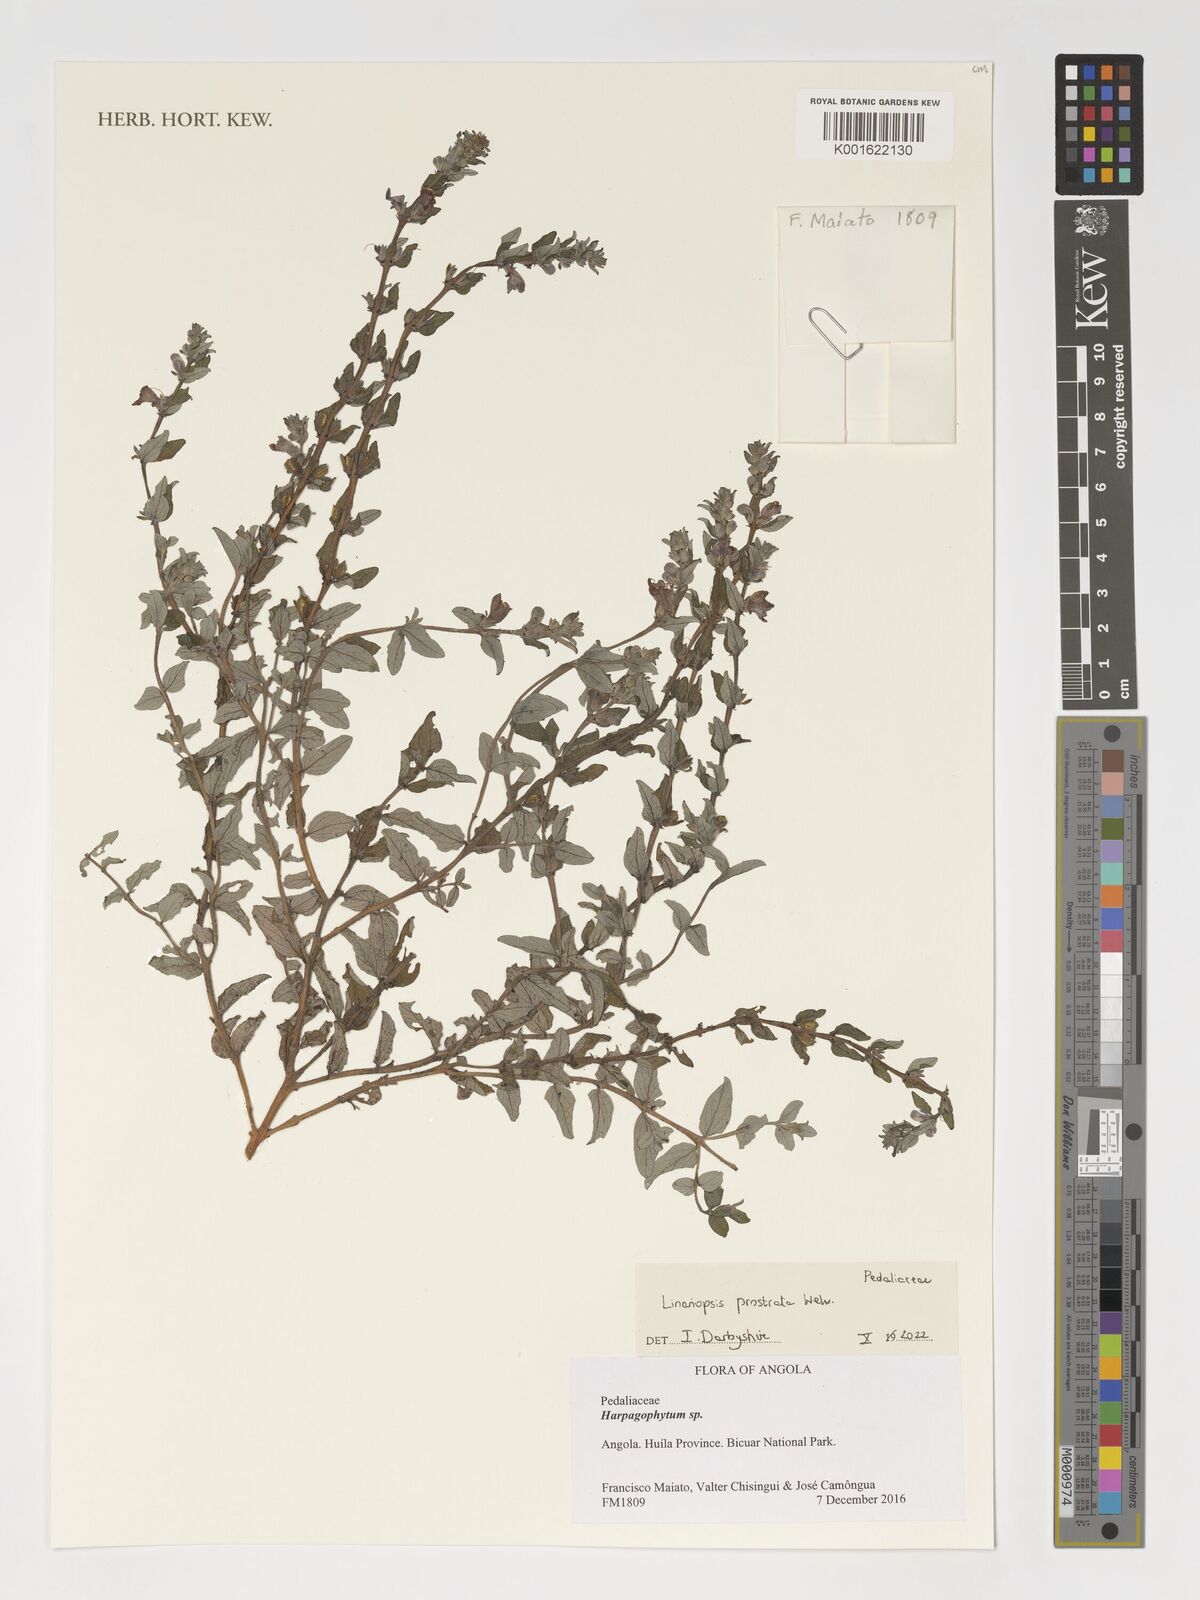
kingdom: Plantae
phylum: Tracheophyta
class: Magnoliopsida
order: Lamiales
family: Pedaliaceae
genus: Linariopsis
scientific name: Linariopsis prostrata
